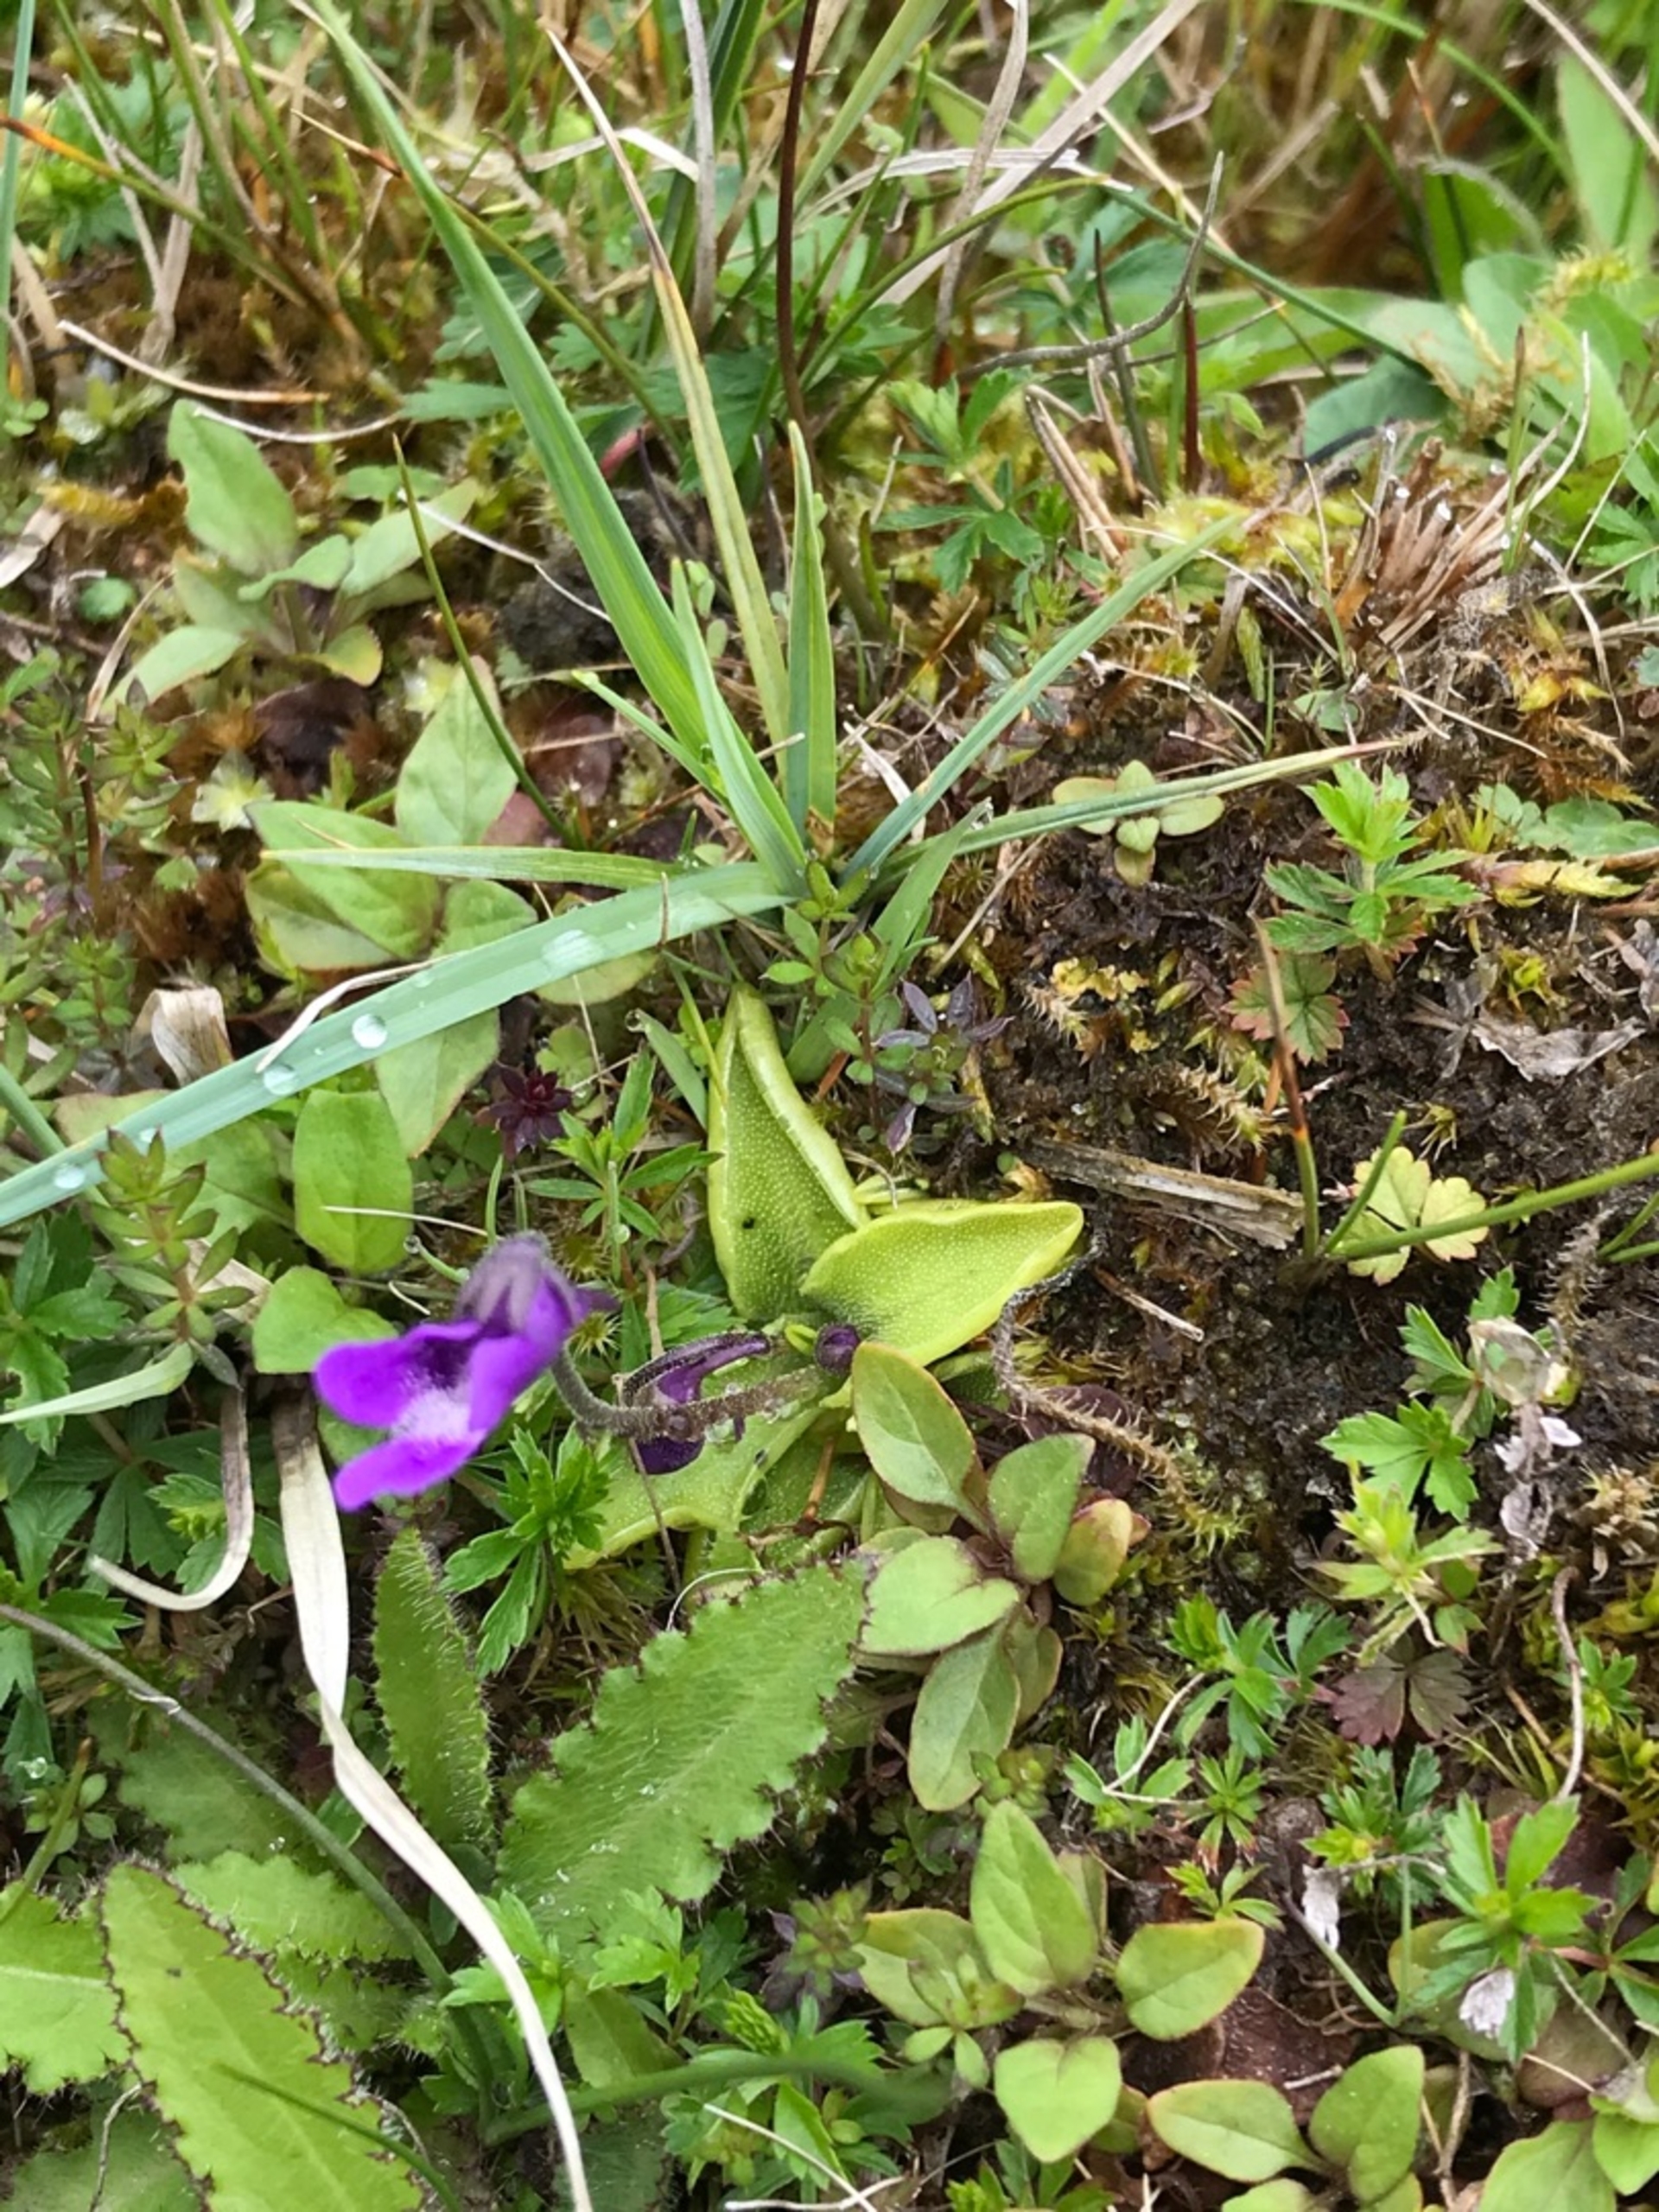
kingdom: Plantae
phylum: Tracheophyta
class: Magnoliopsida
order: Lamiales
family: Lentibulariaceae
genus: Pinguicula
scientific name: Pinguicula vulgaris
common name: Vibefedt
